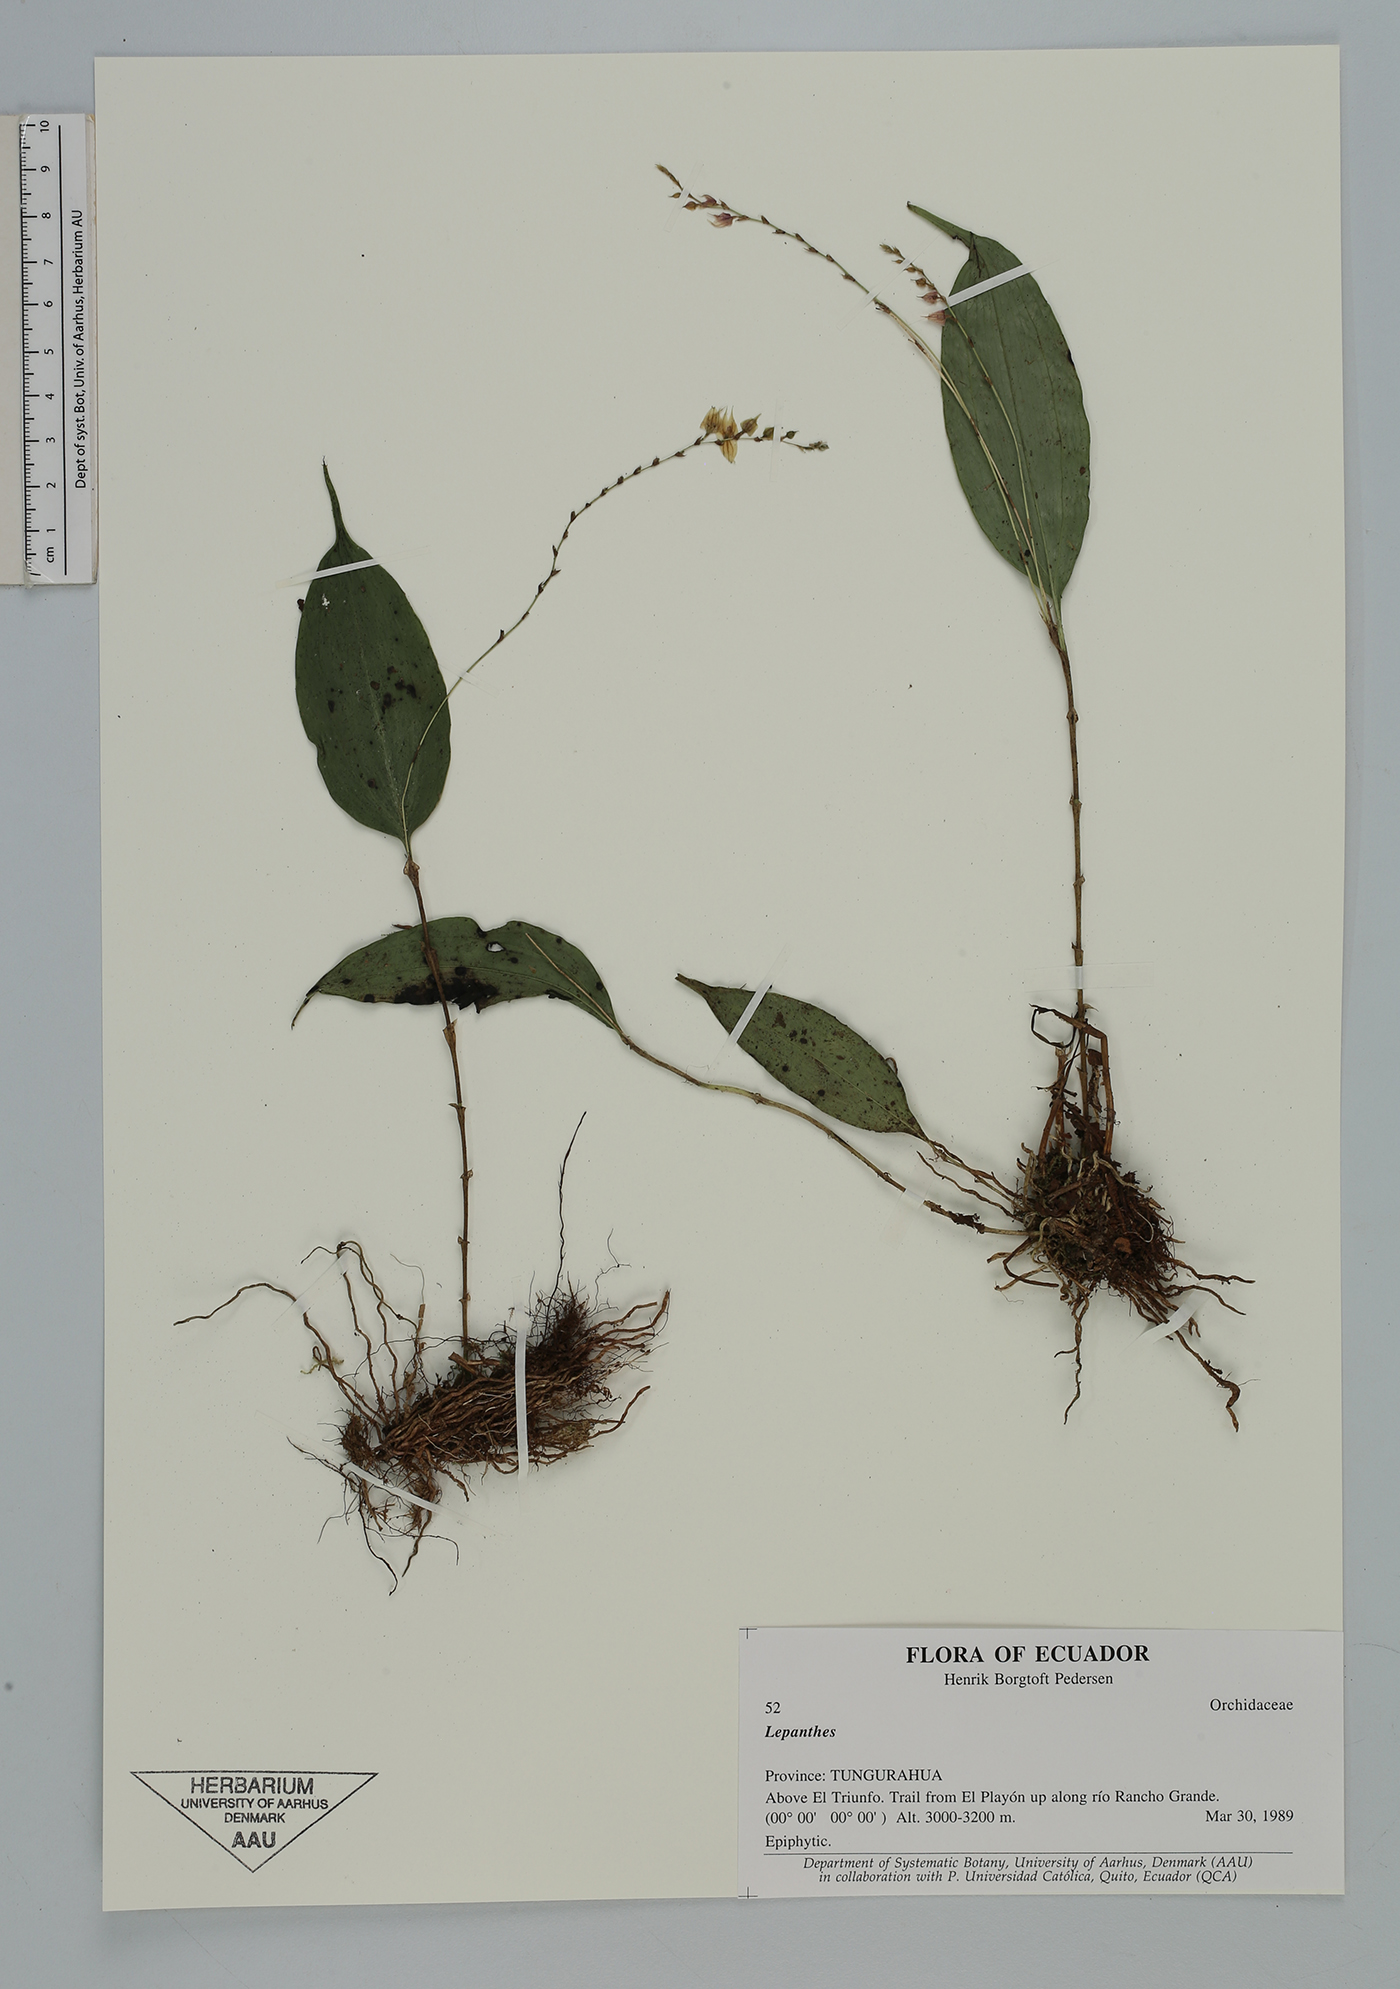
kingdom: Plantae
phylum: Tracheophyta
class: Liliopsida
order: Asparagales
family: Orchidaceae
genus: Lepanthes
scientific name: Lepanthes
